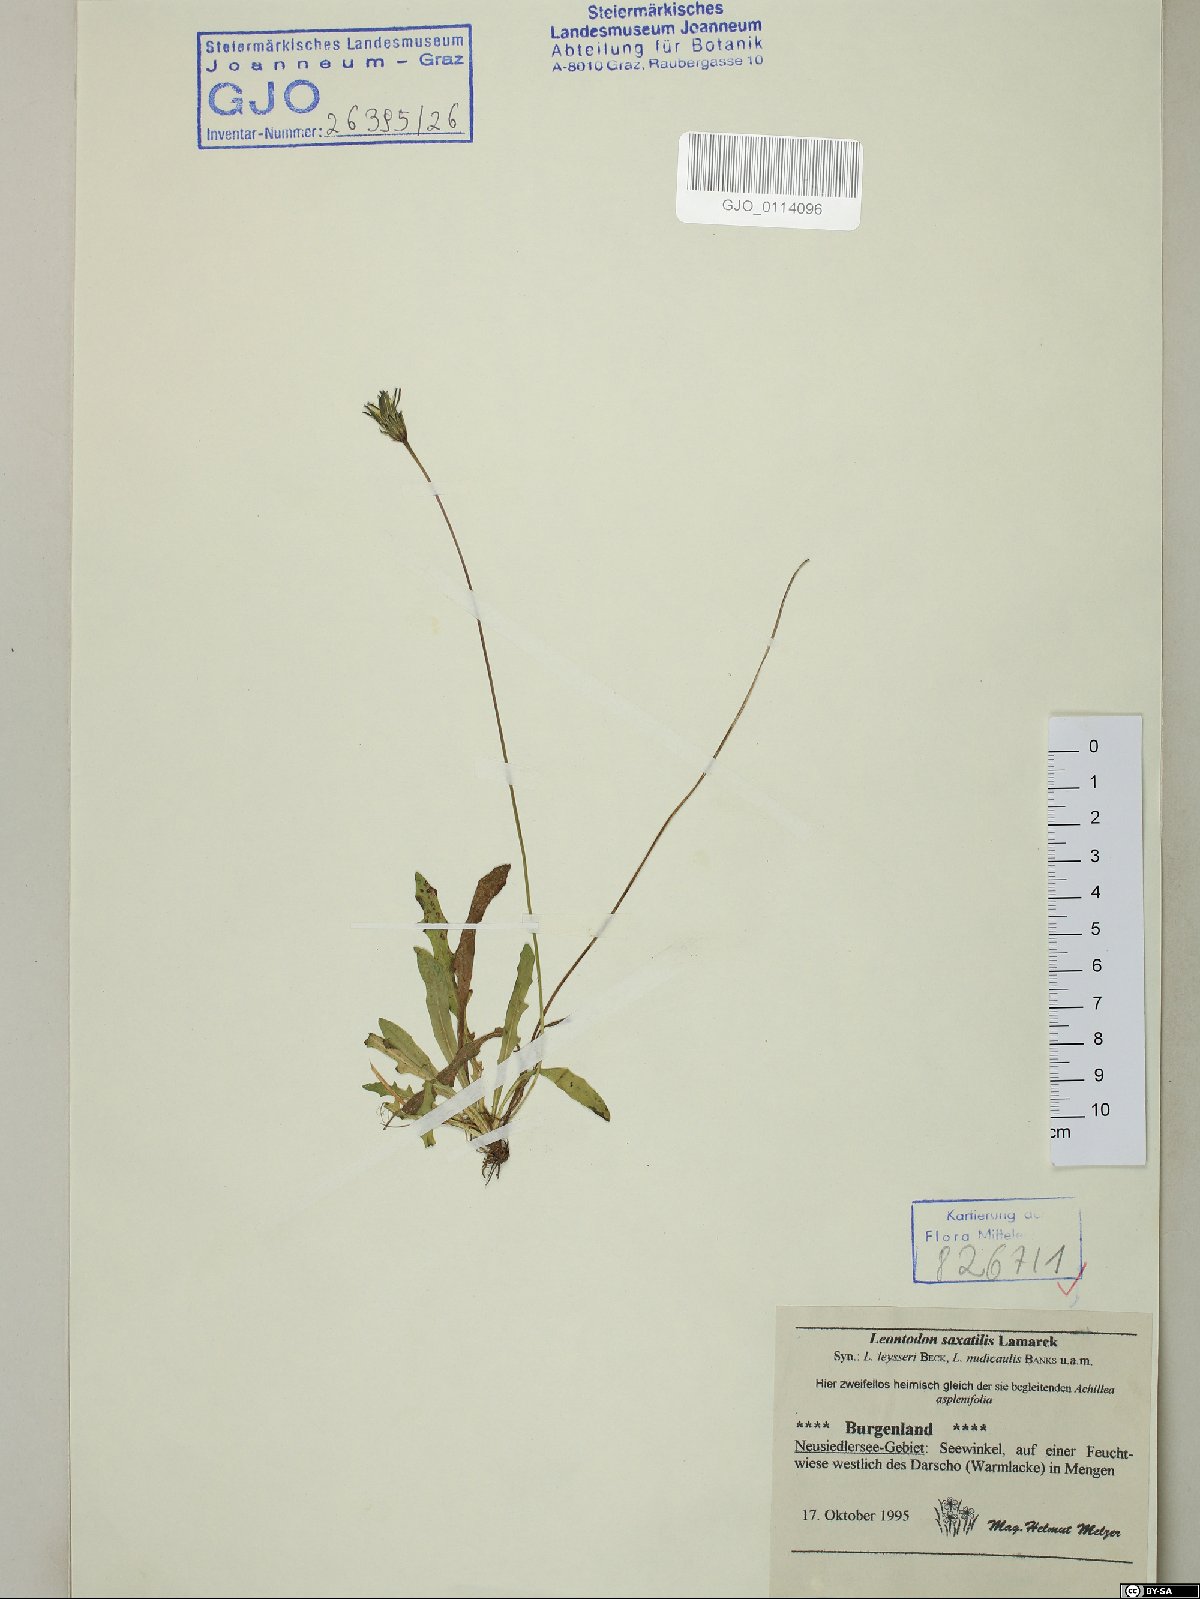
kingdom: Plantae
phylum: Tracheophyta
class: Magnoliopsida
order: Asterales
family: Asteraceae
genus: Thrincia
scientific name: Thrincia saxatilis
